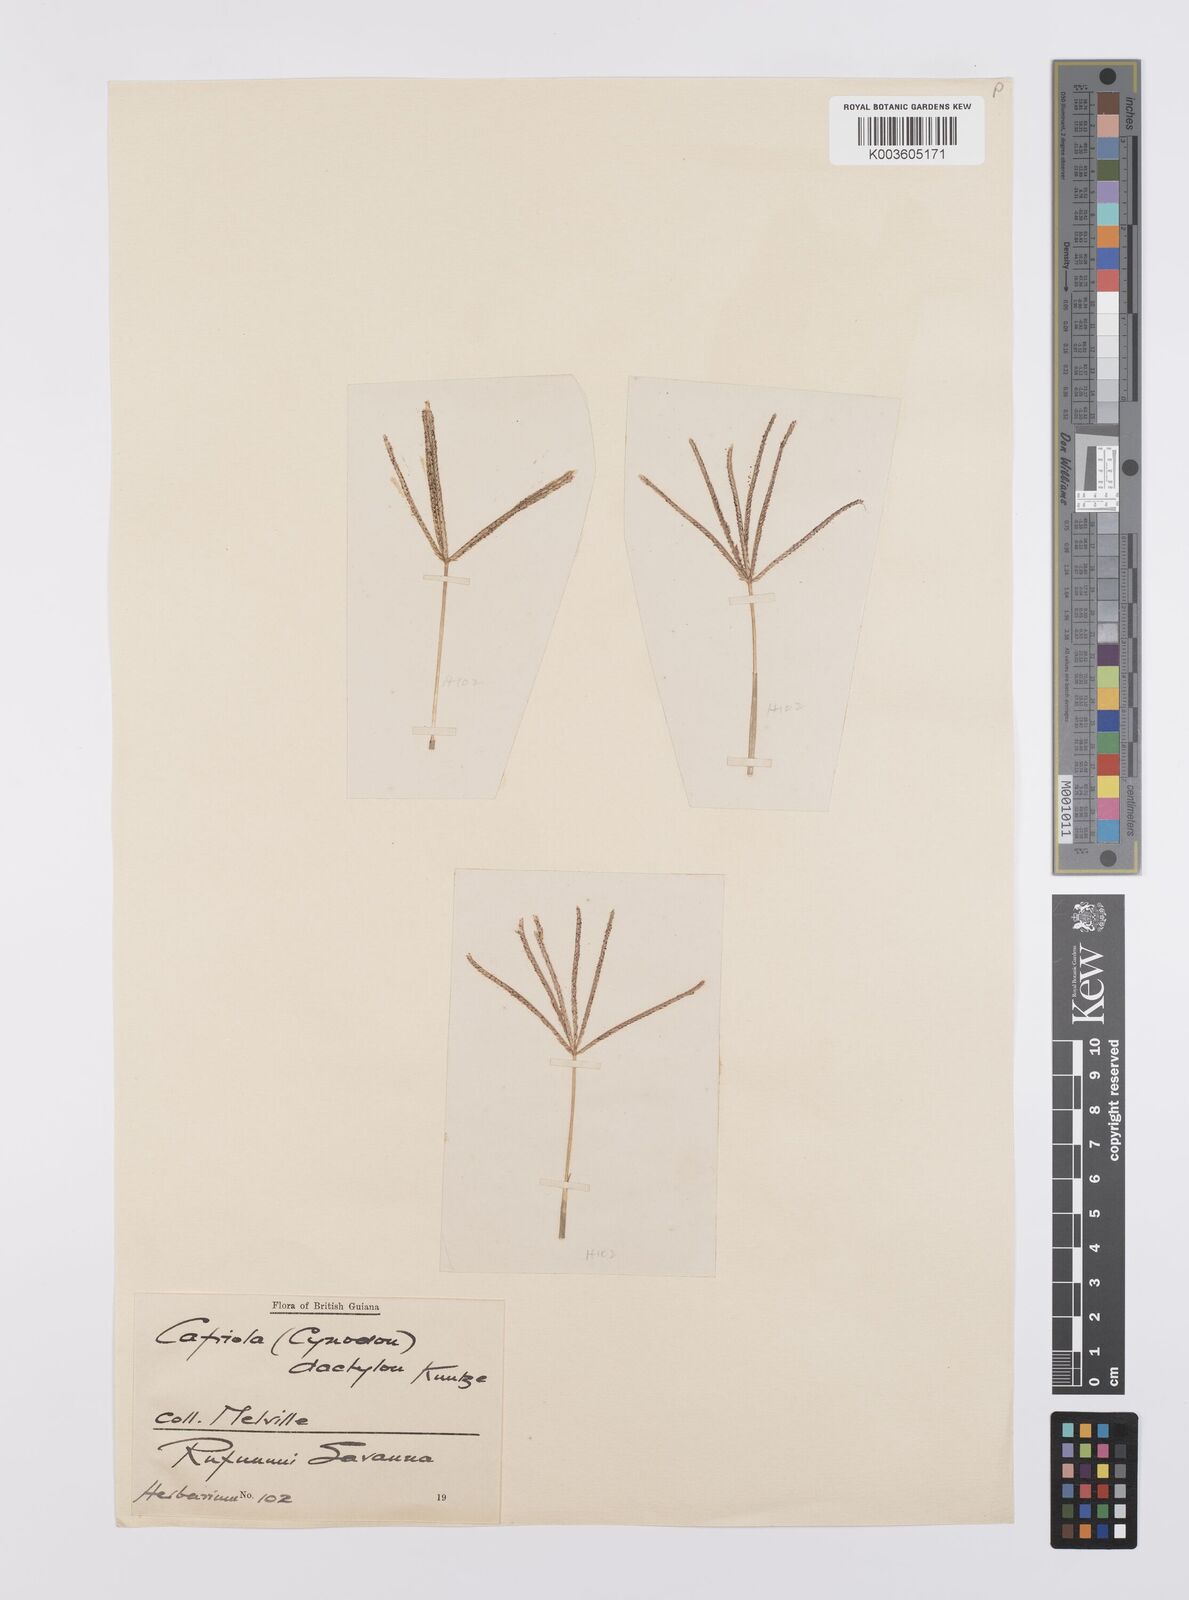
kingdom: Plantae
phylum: Tracheophyta
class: Liliopsida
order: Poales
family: Poaceae
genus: Cynodon
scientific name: Cynodon dactylon
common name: Bermuda grass
